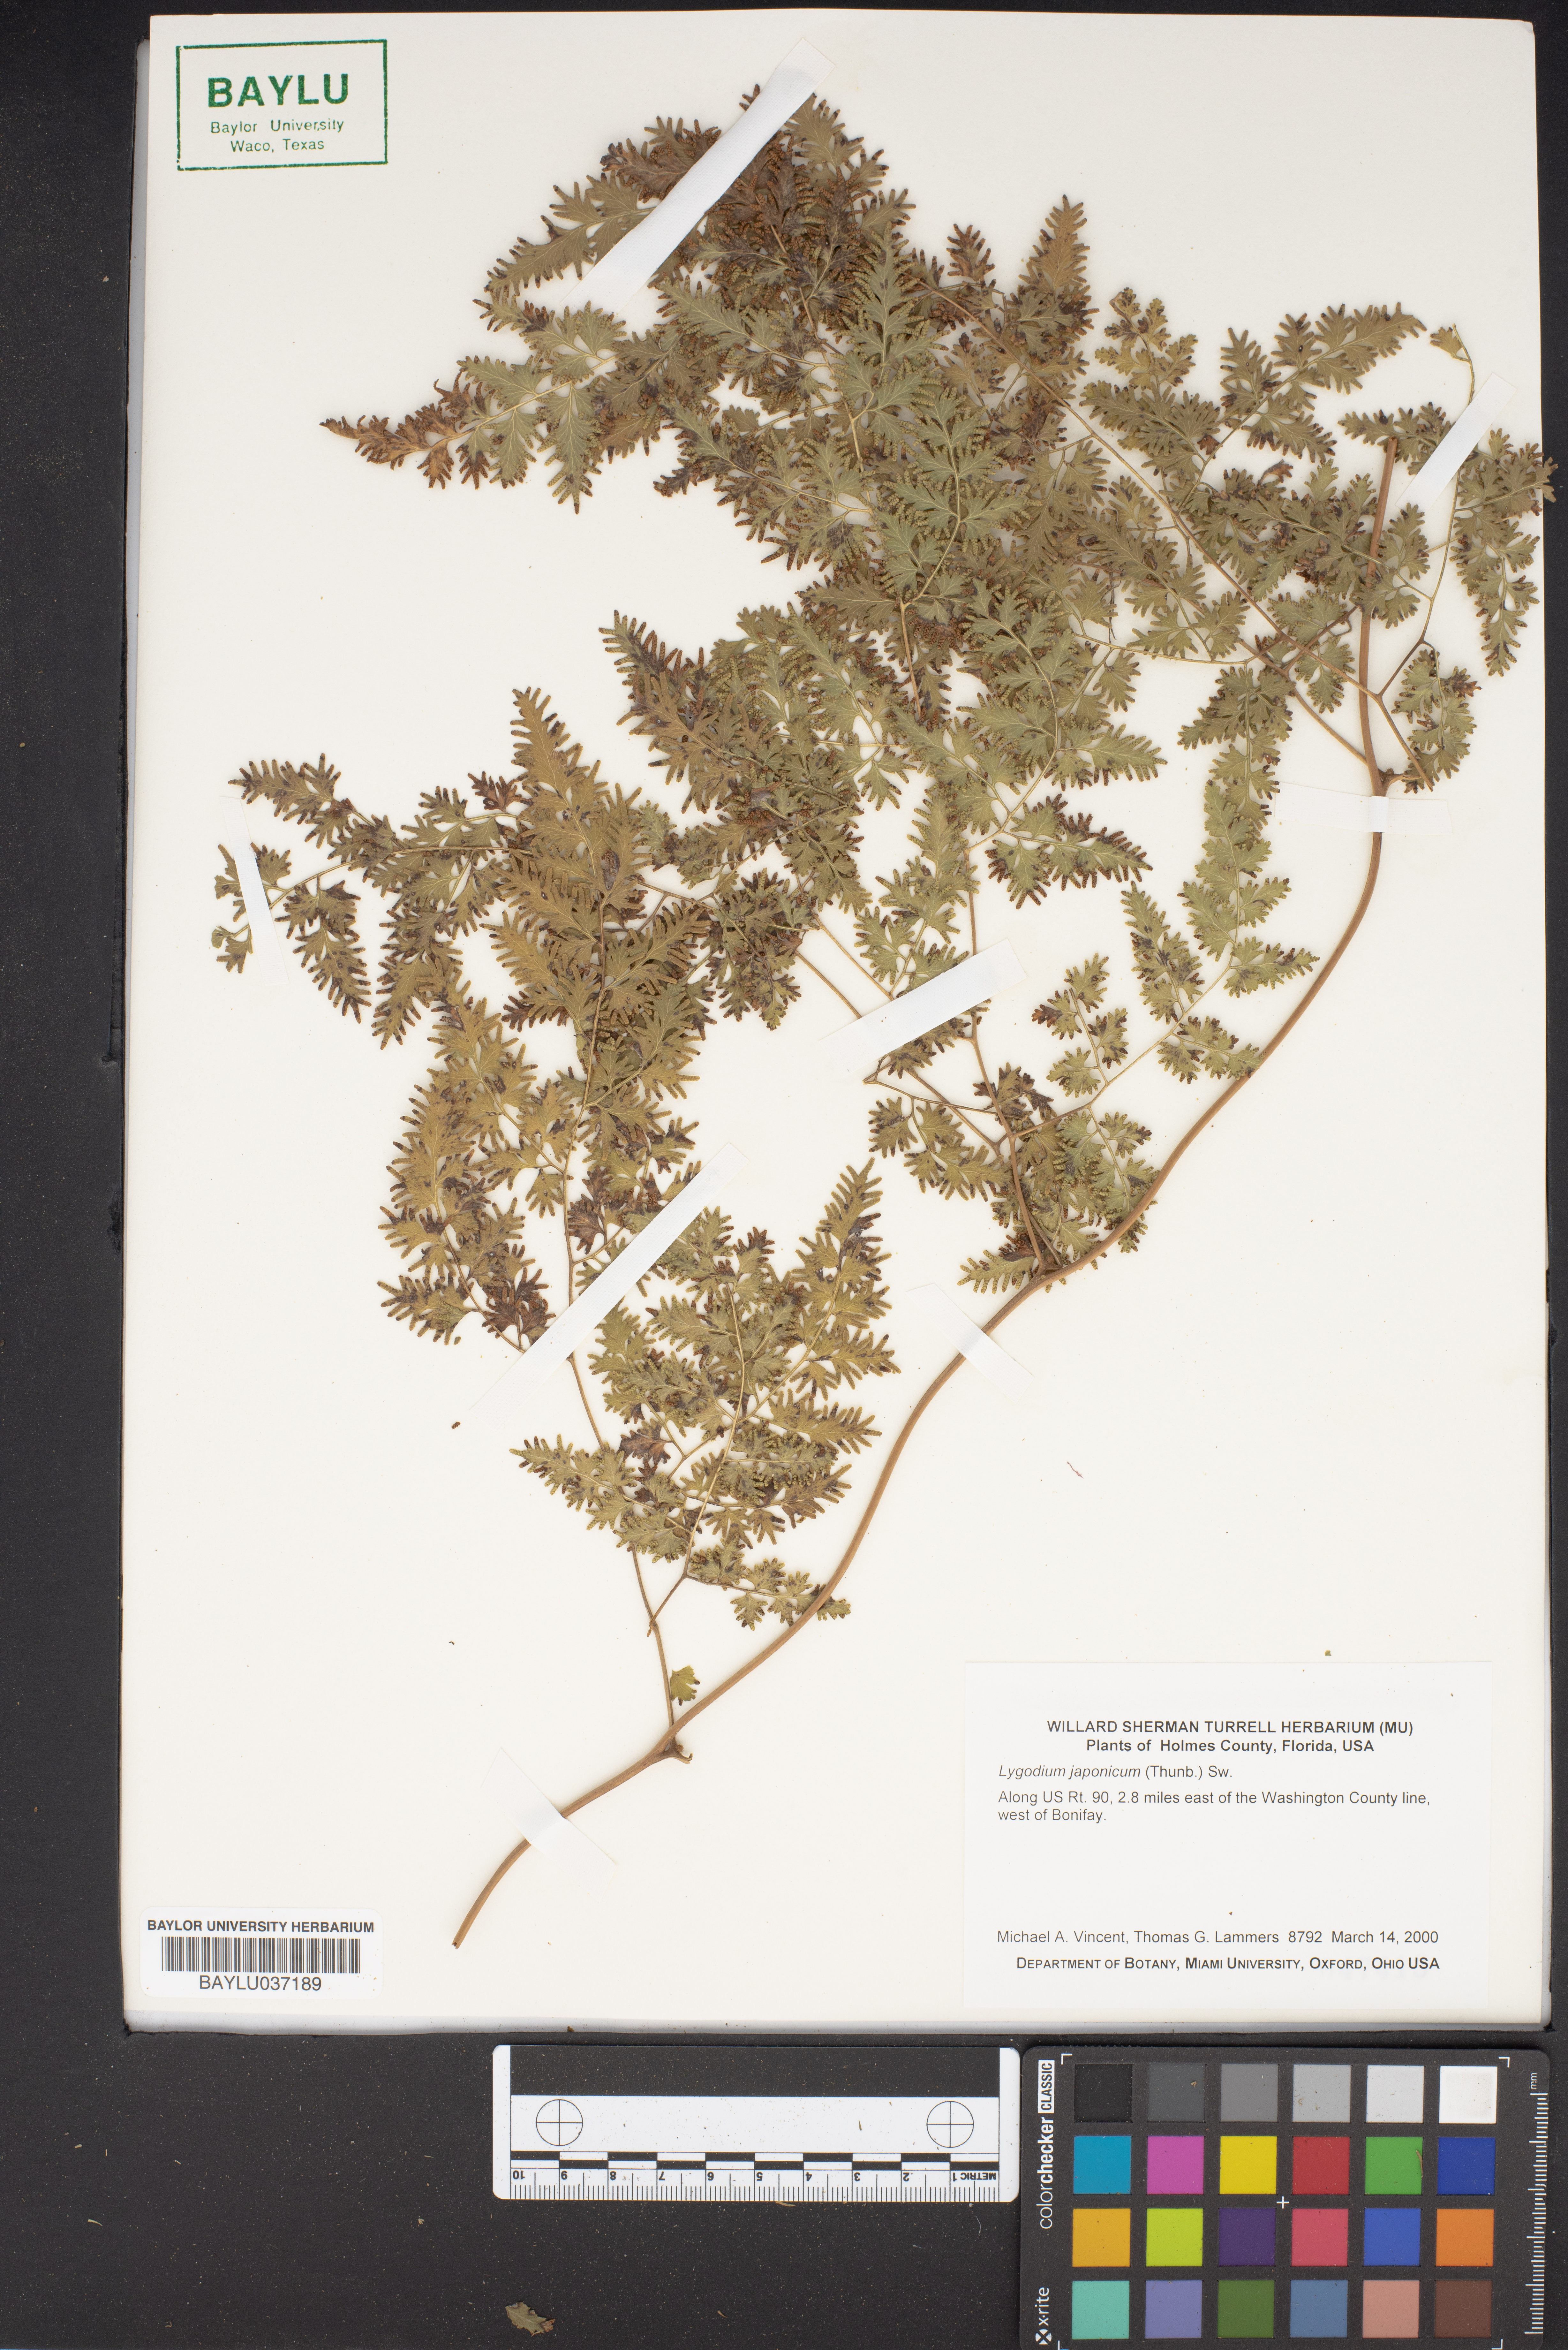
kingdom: Plantae
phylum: Tracheophyta
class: Polypodiopsida
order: Schizaeales
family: Lygodiaceae
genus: Lygodium
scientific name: Lygodium japonicum
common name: Japanese climbing fern
